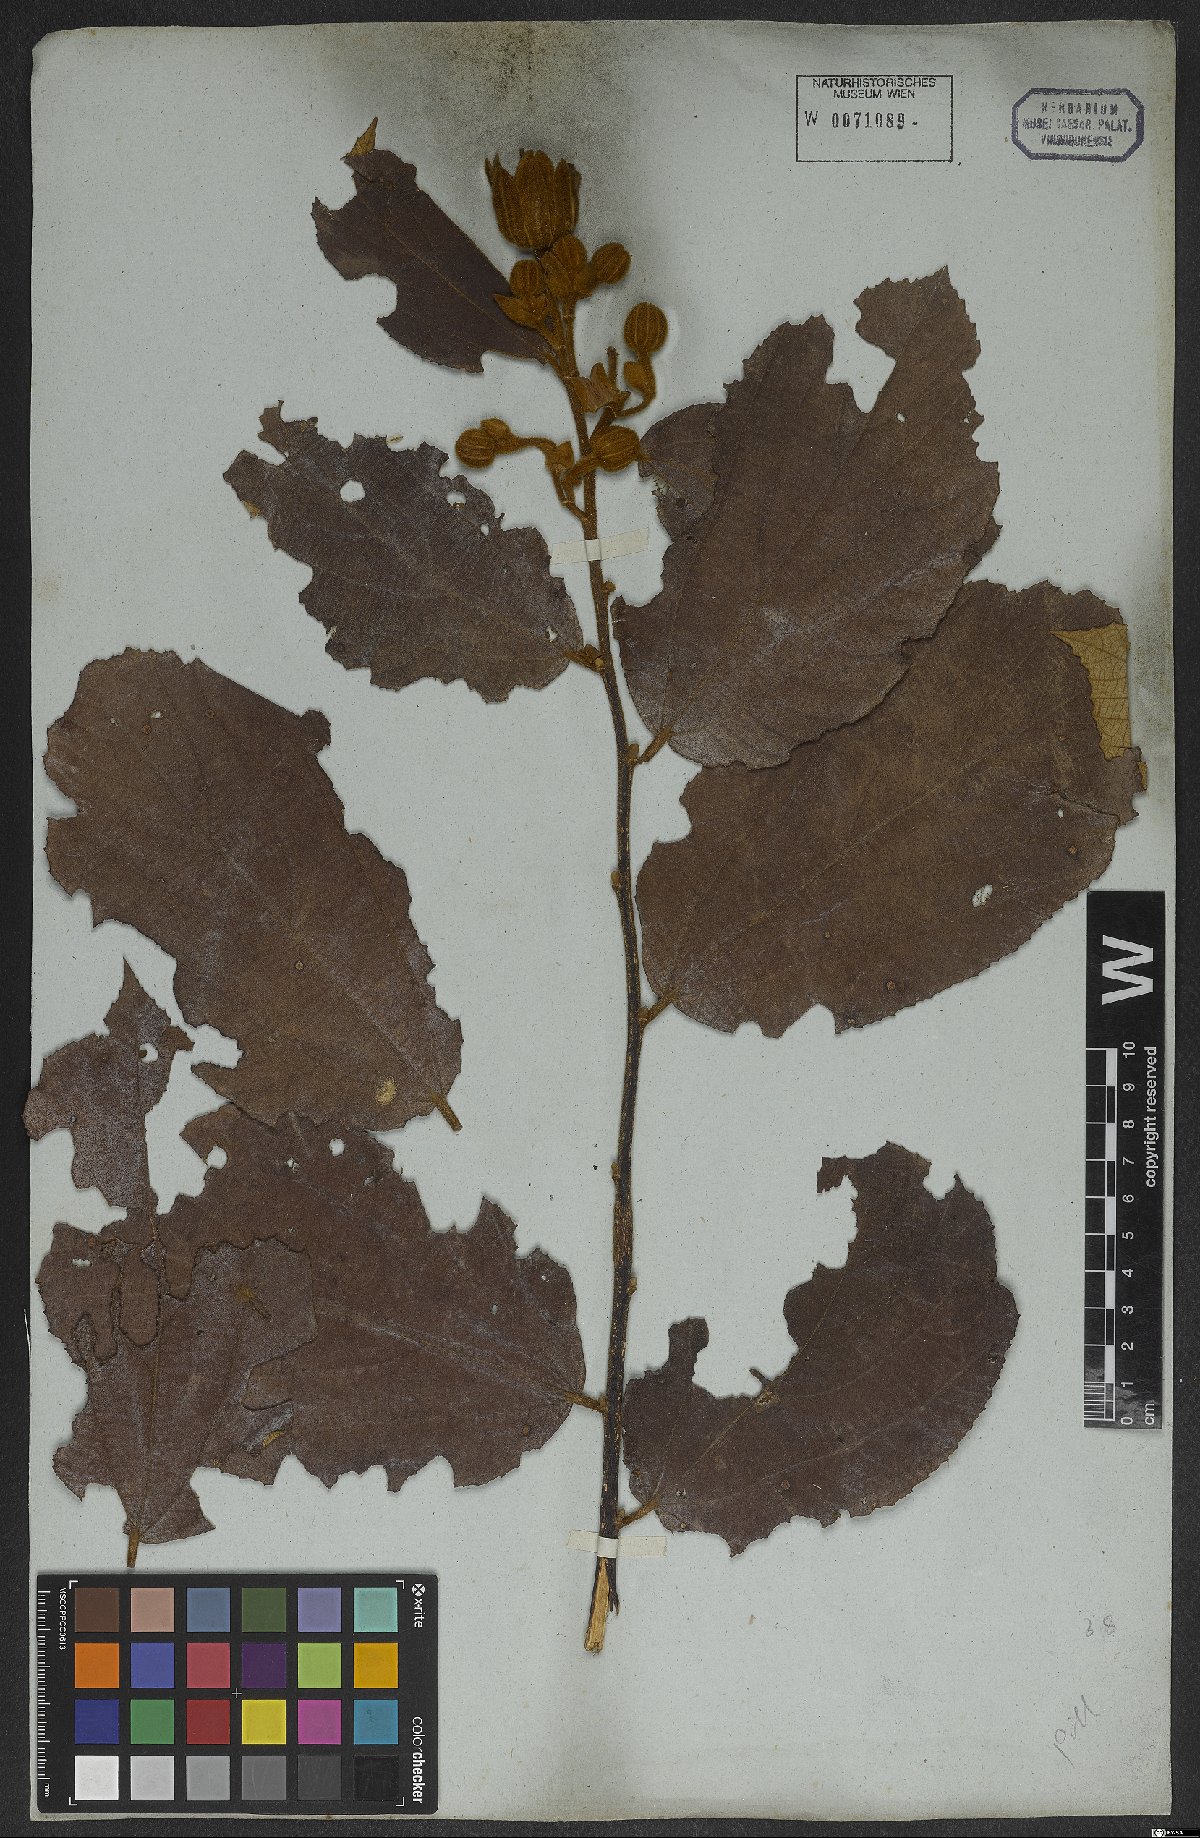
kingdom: Plantae
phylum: Tracheophyta
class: Magnoliopsida
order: Malvales
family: Malvaceae
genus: Luehea
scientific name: Luehea grandiflora
